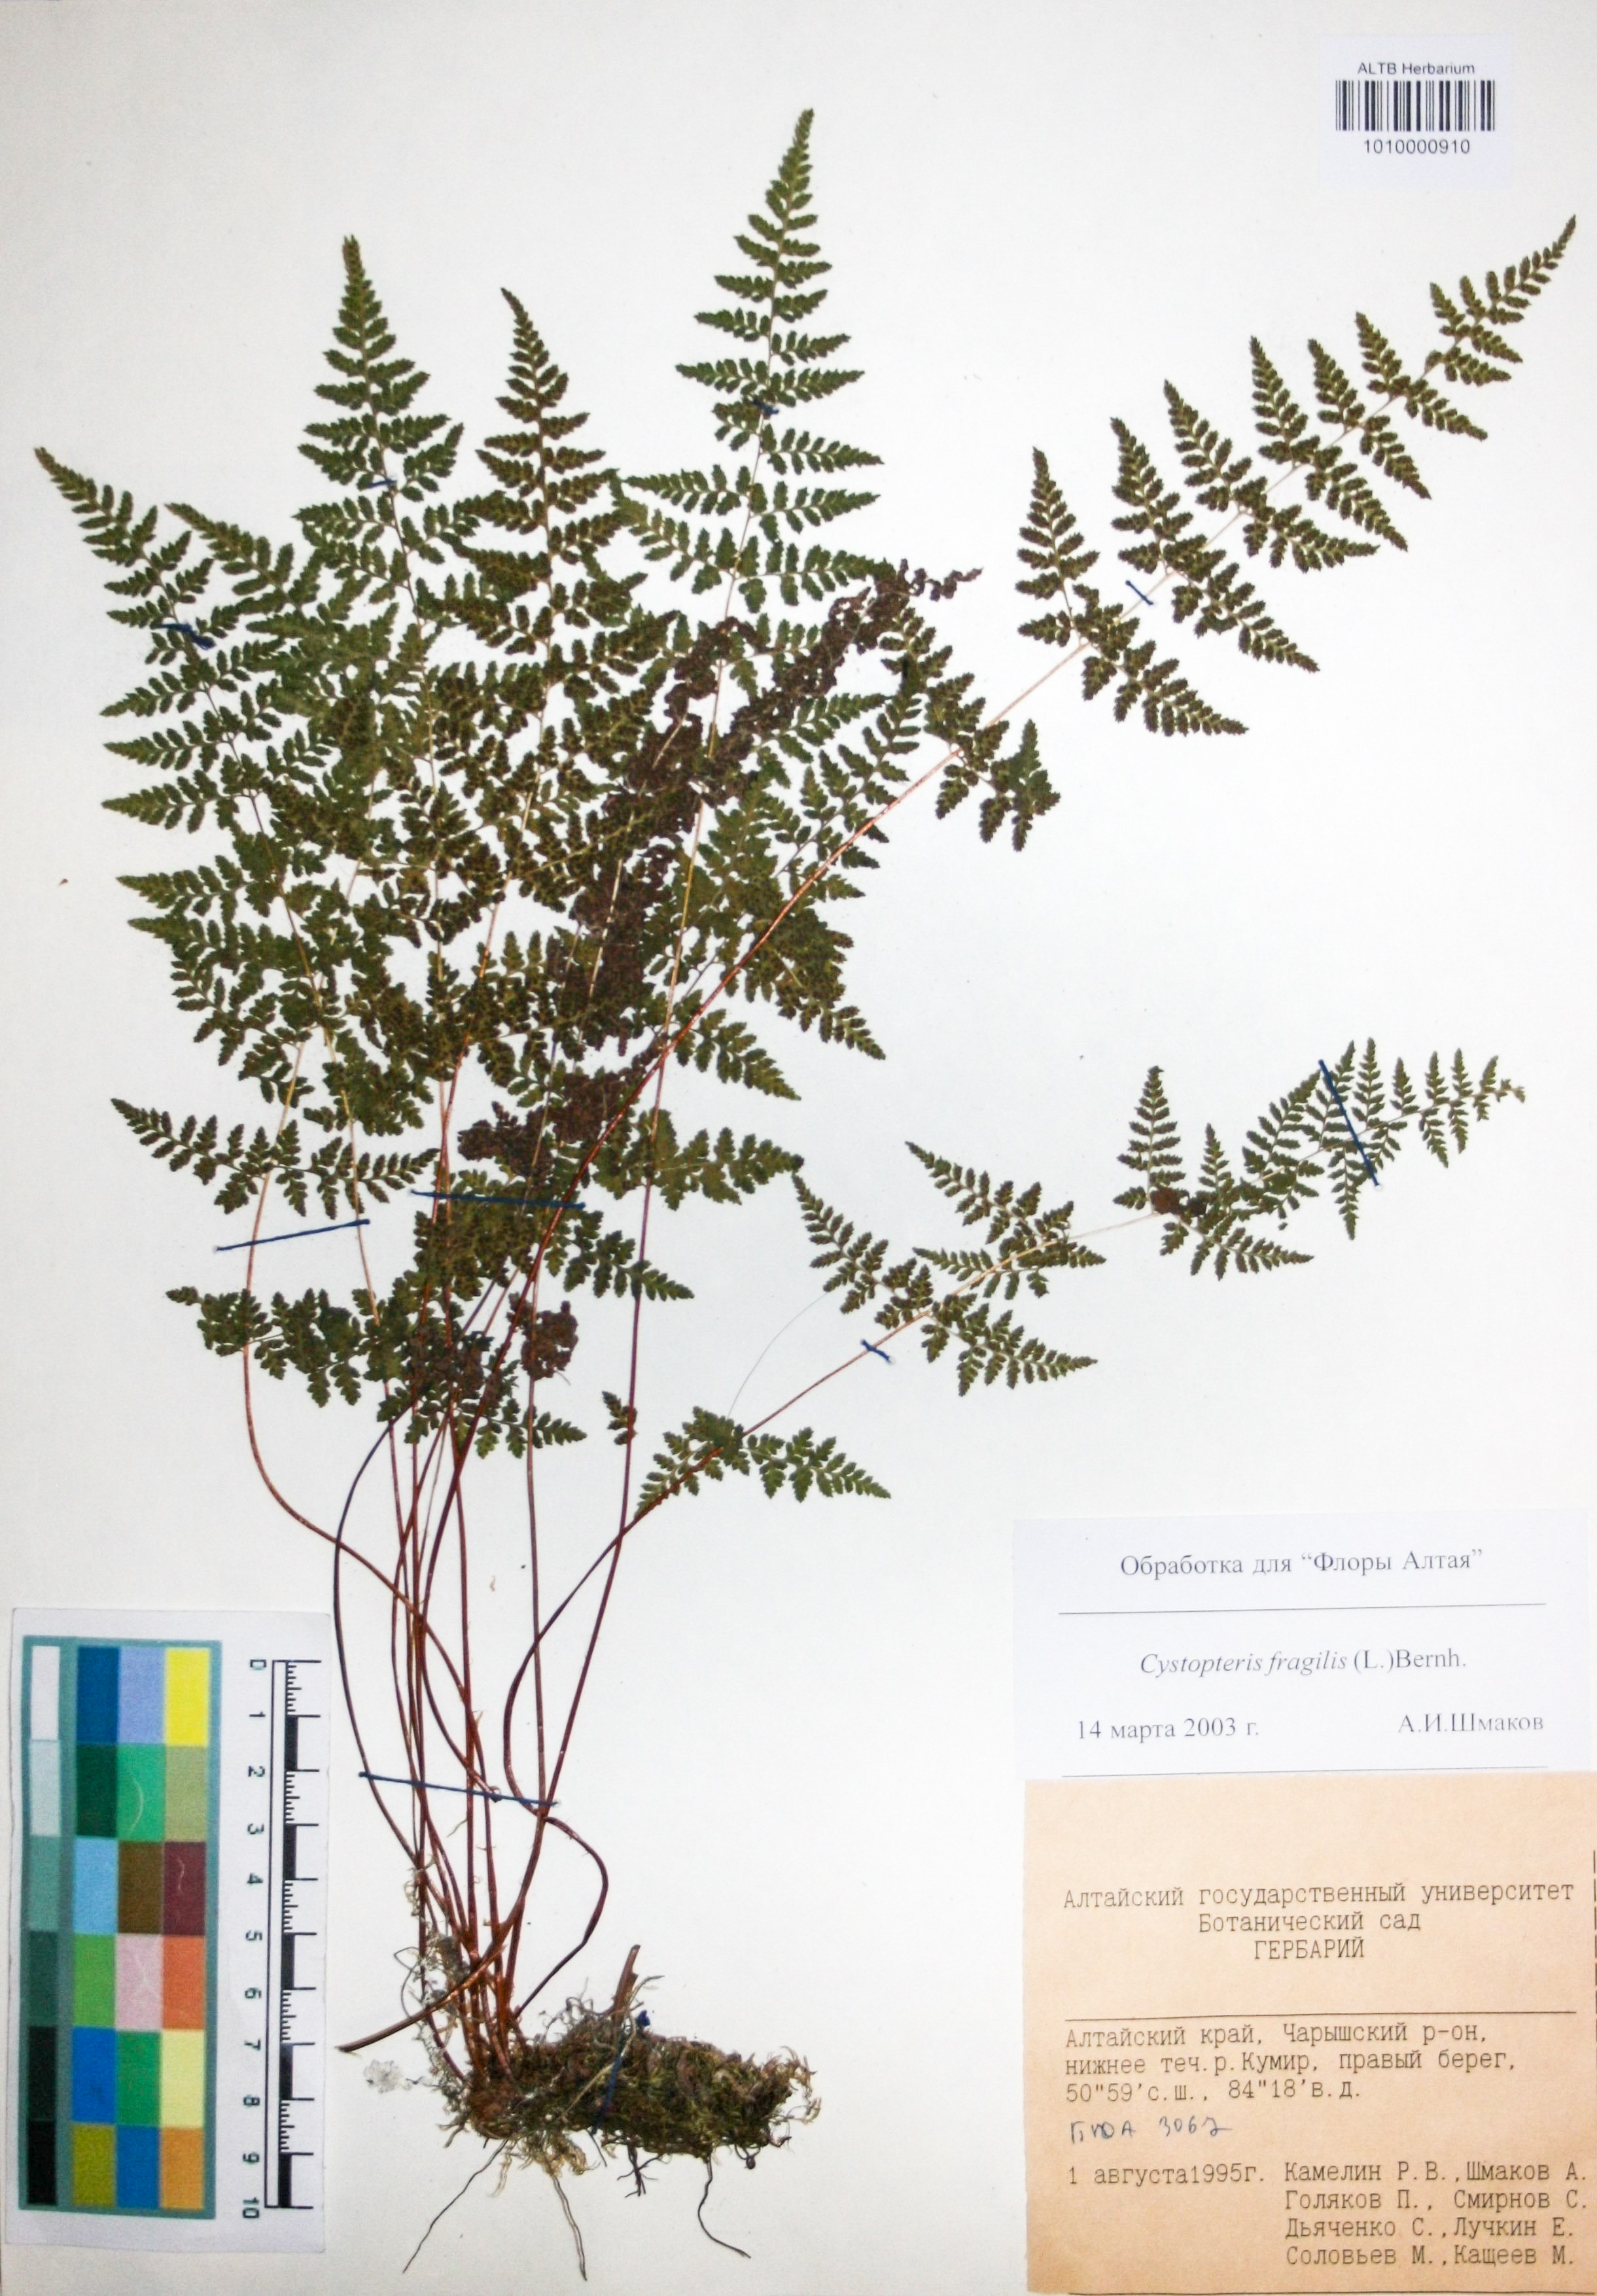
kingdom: Plantae
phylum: Tracheophyta
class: Polypodiopsida
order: Polypodiales
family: Cystopteridaceae
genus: Cystopteris
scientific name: Cystopteris fragilis
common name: Brittle bladder fern
